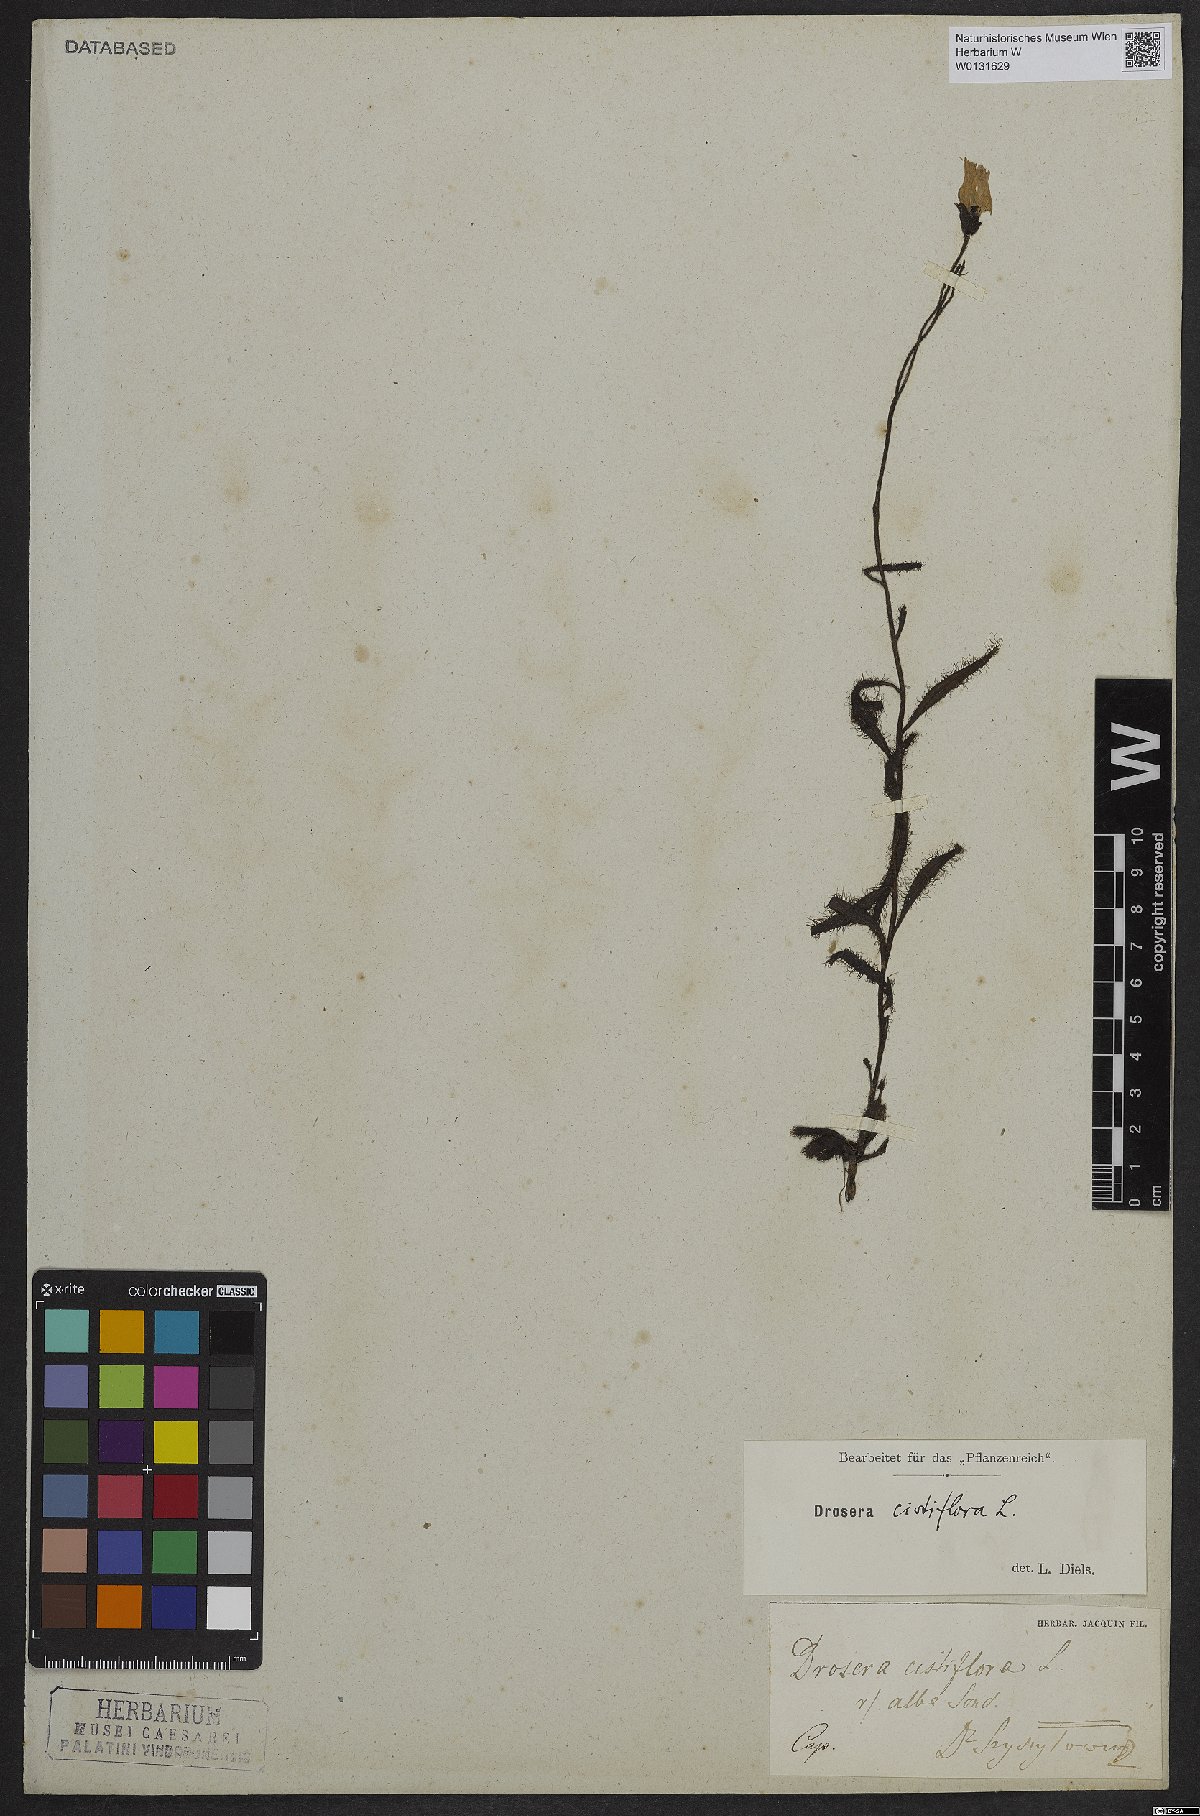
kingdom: Plantae
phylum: Tracheophyta
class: Magnoliopsida
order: Caryophyllales
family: Droseraceae
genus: Drosera
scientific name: Drosera cistiflora
